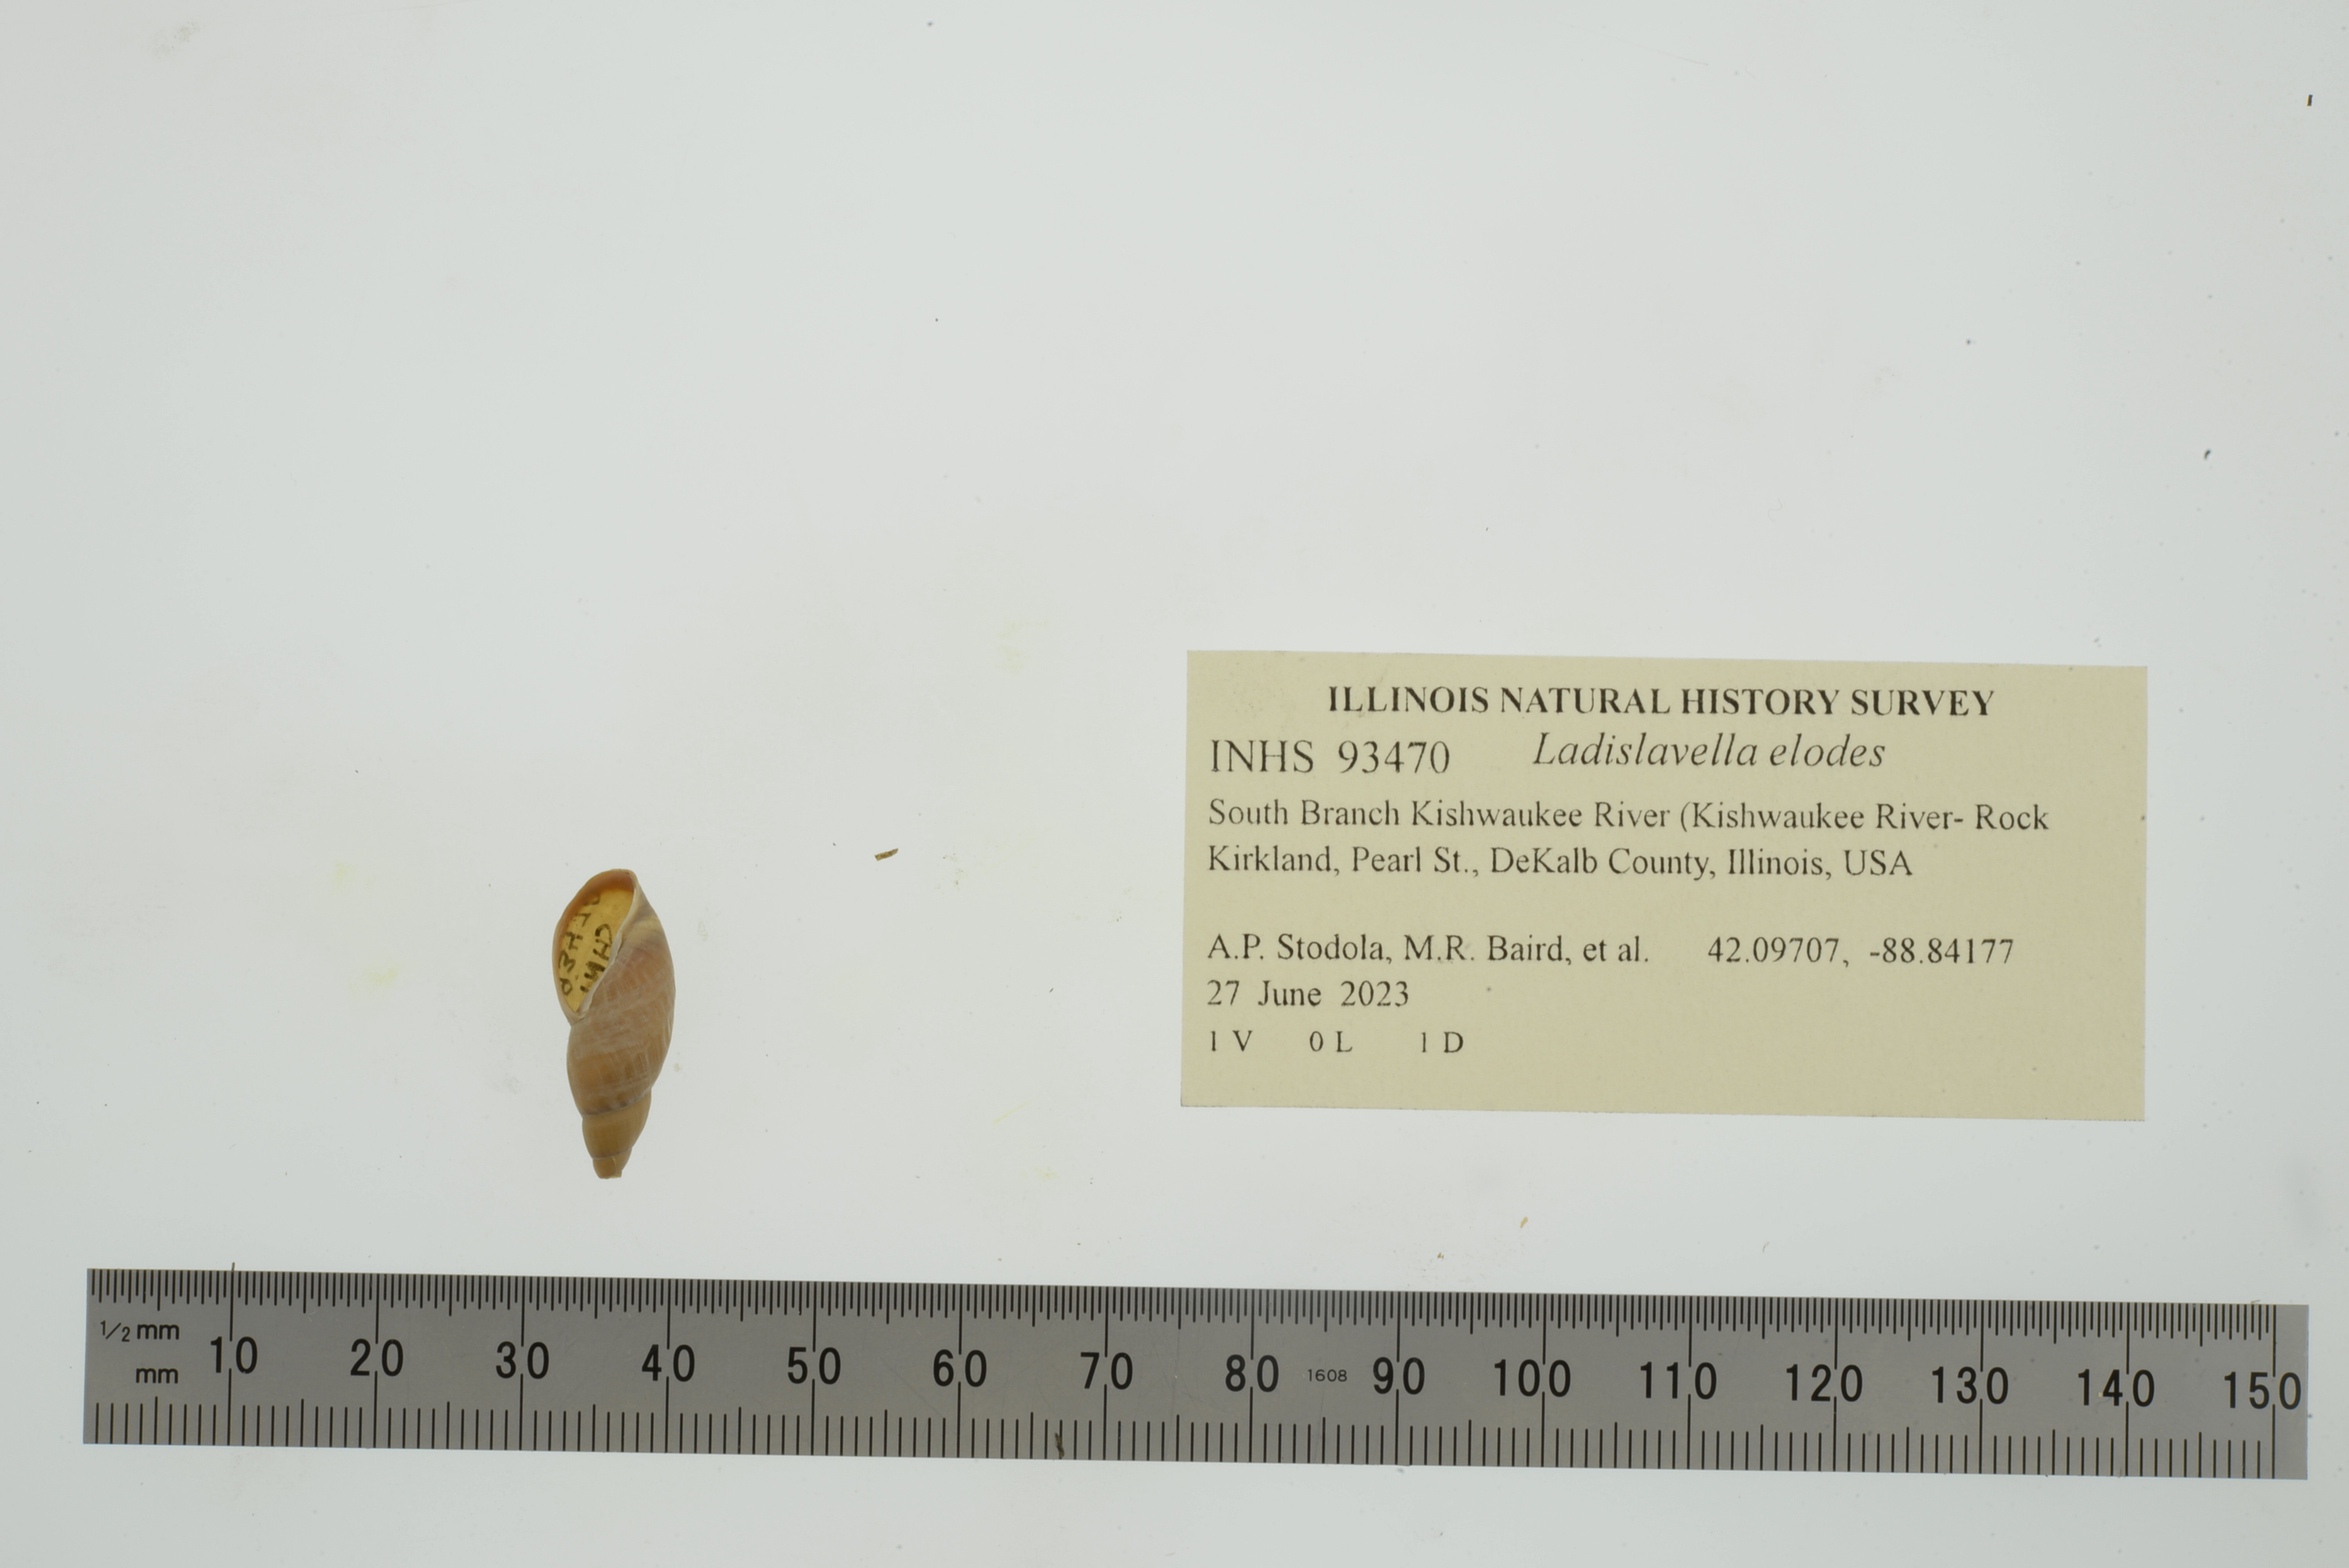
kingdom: Animalia
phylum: Mollusca
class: Gastropoda
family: Lymnaeidae
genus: Ladislavella
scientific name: Ladislavella elodes
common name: Marsh pondsnail
